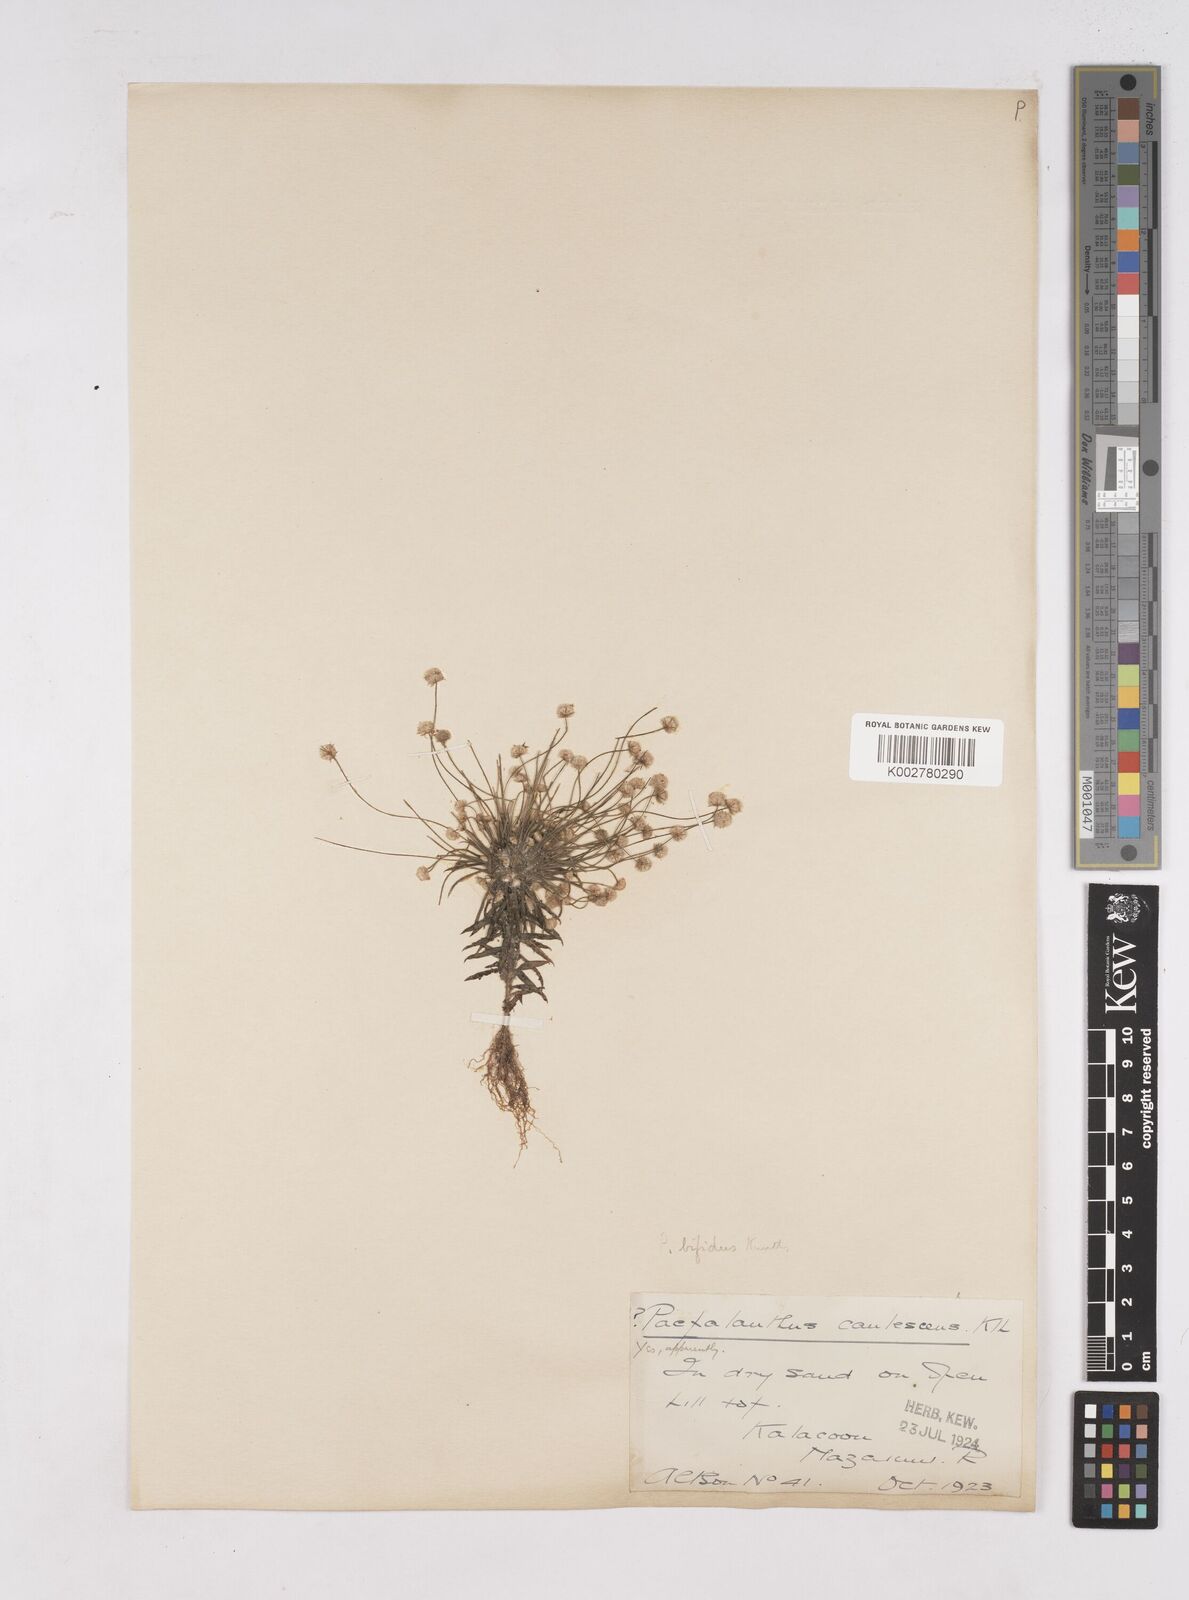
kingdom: Plantae
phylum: Tracheophyta
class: Liliopsida
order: Poales
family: Eriocaulaceae
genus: Paepalanthus
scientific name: Paepalanthus bifidus
